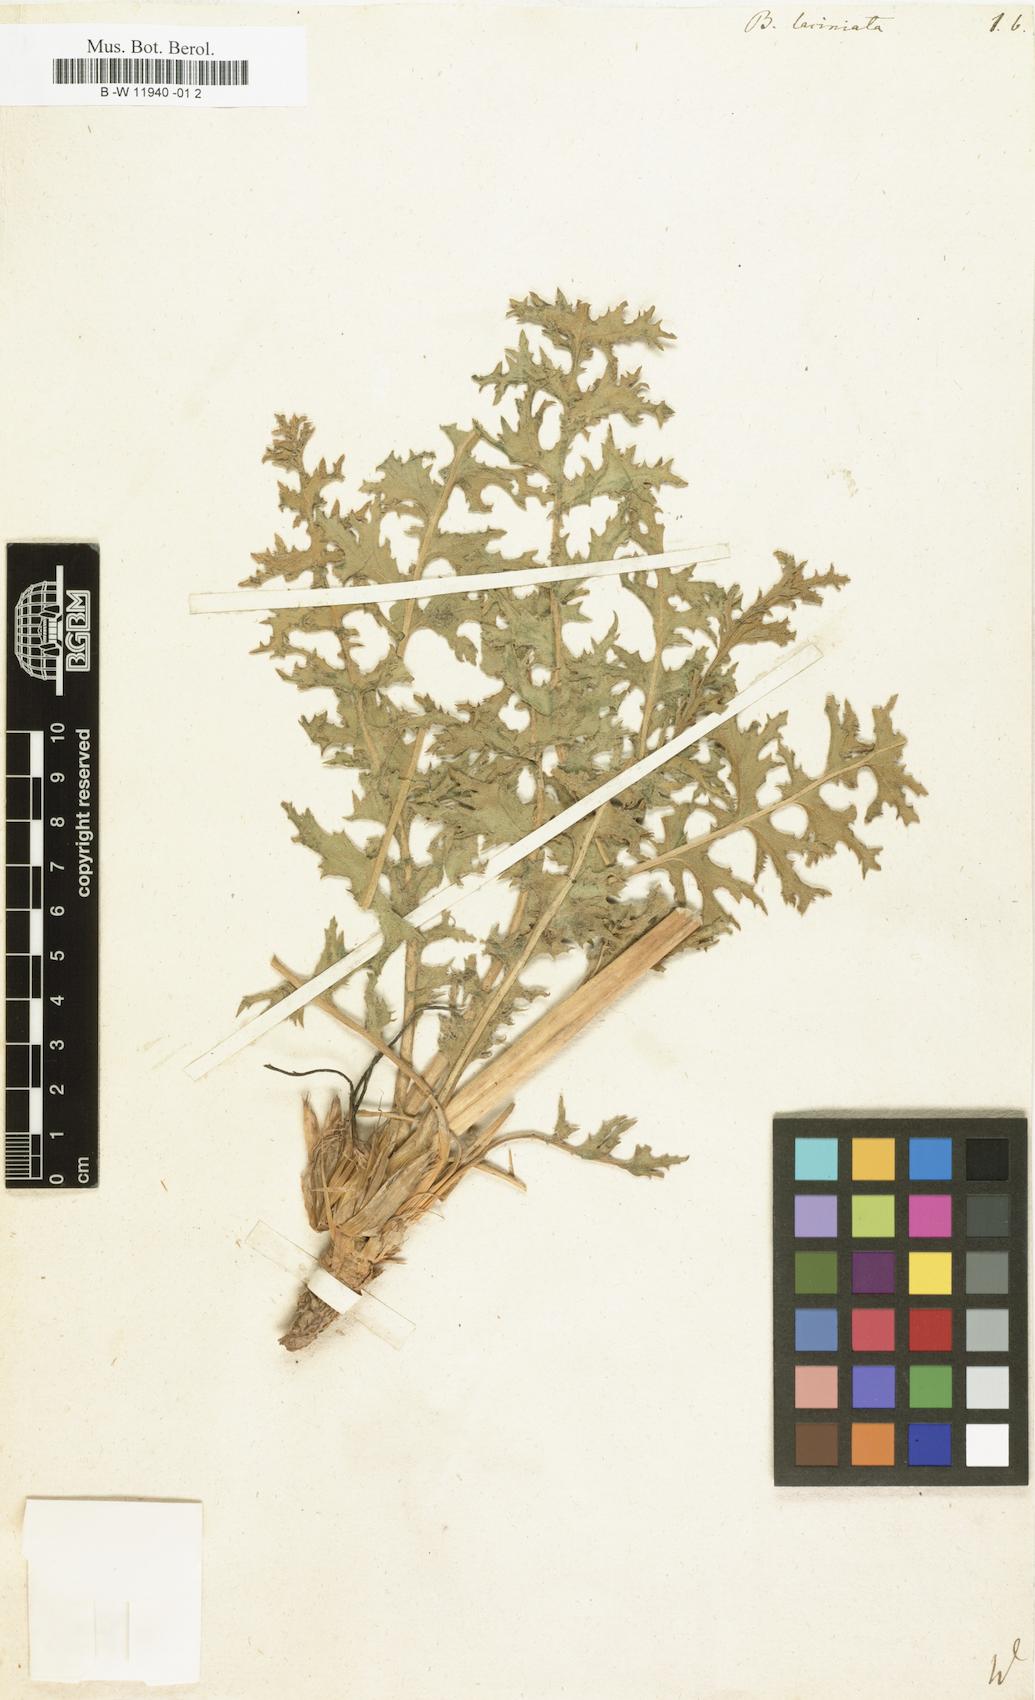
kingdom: Plantae
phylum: Tracheophyta
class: Magnoliopsida
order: Brassicales
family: Brassicaceae
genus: Megacarpaea
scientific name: Megacarpaea megalocarpa
